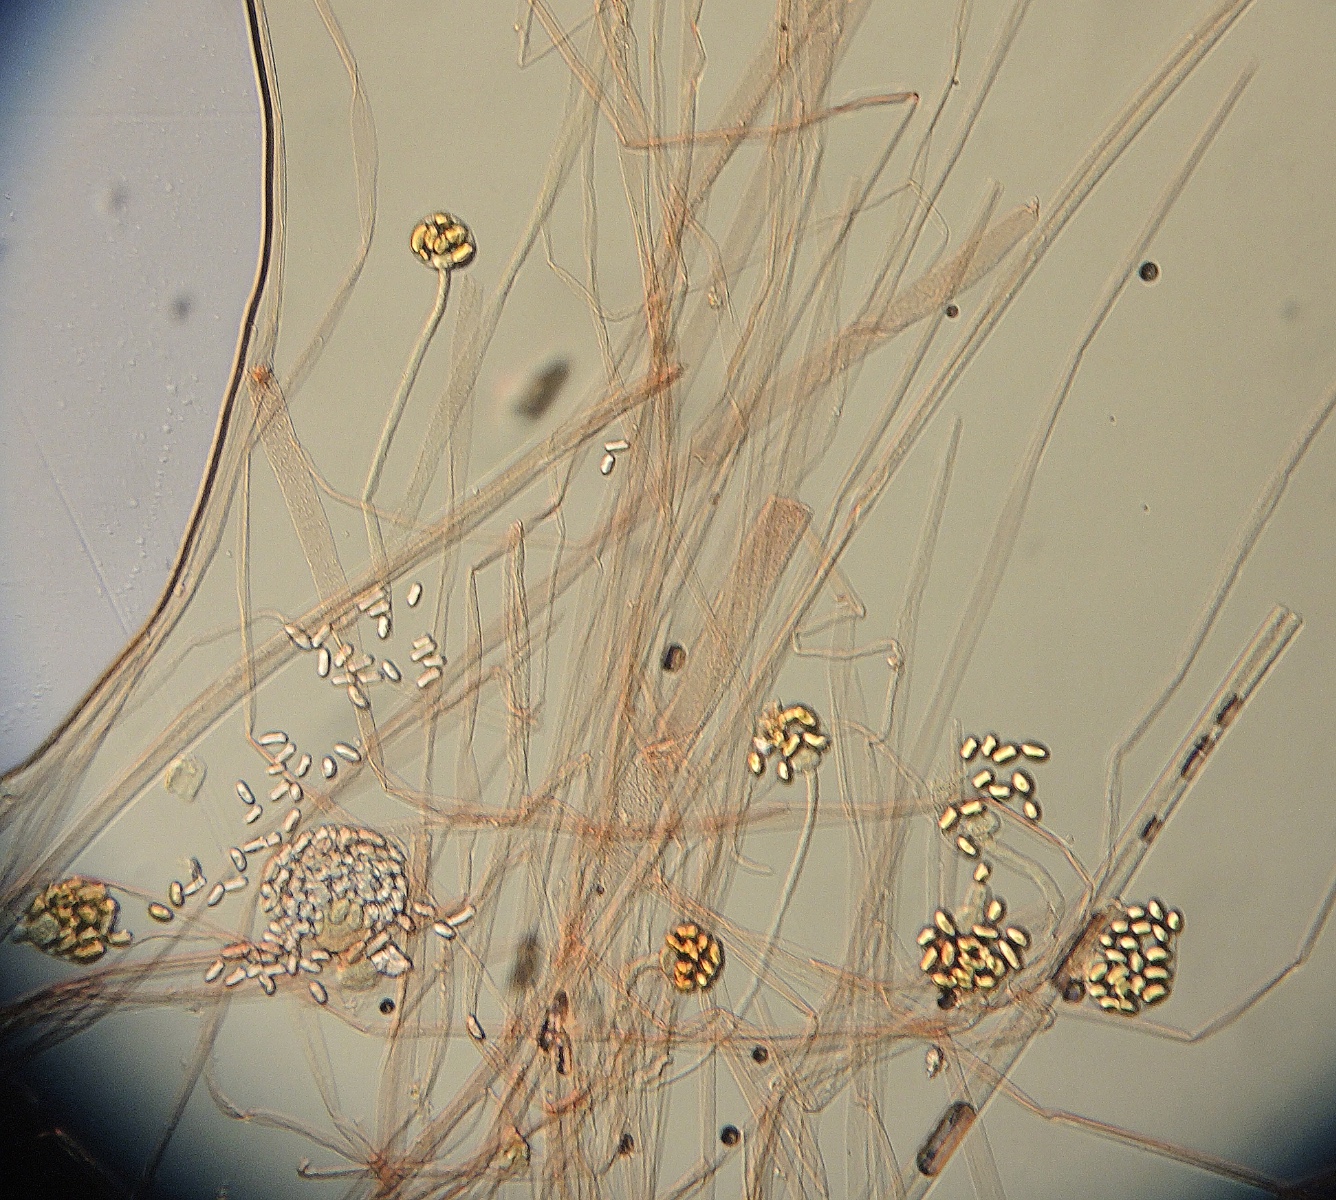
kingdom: Fungi
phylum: Mucoromycota
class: Mucoromycetes
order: Mucorales
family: Mucoraceae
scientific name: Mucoraceae
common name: mugfamilien
